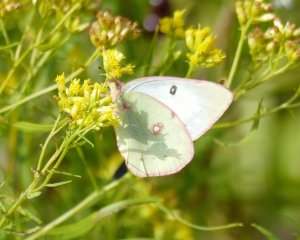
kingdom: Animalia
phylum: Arthropoda
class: Insecta
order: Lepidoptera
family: Pieridae
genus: Colias
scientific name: Colias philodice
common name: Clouded Sulphur
